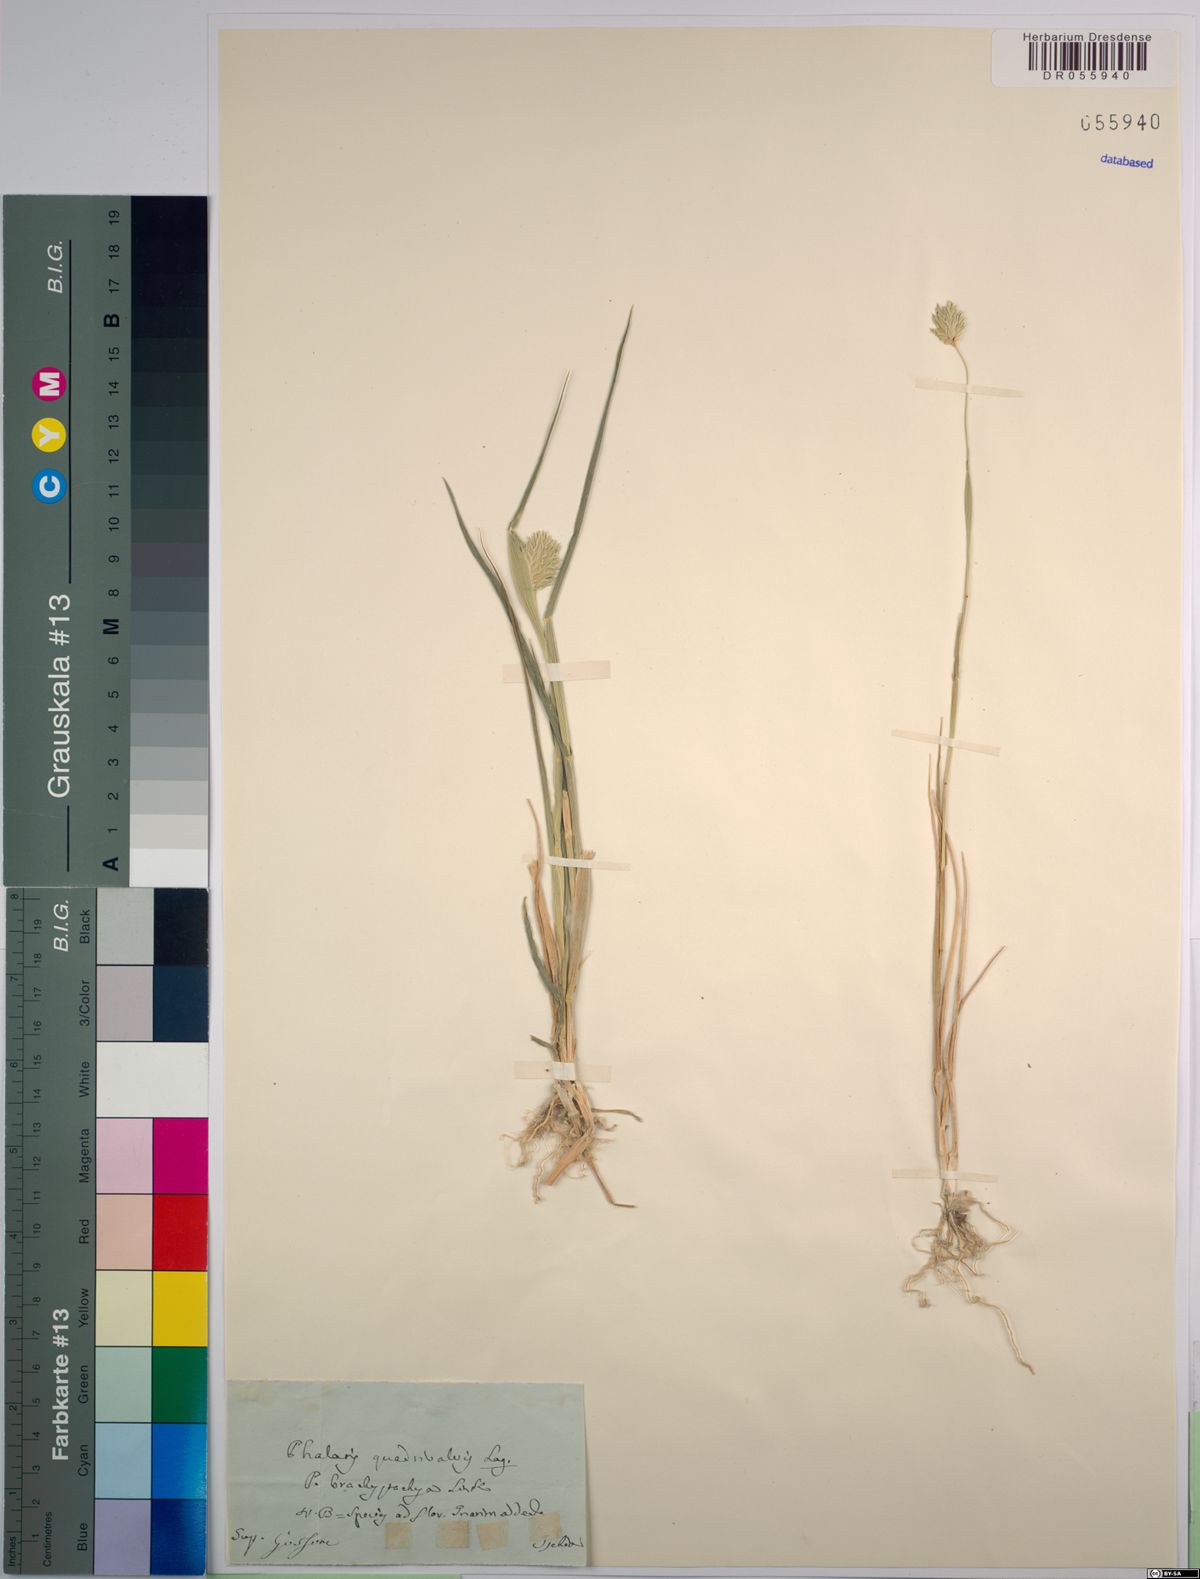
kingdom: Plantae
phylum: Tracheophyta
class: Liliopsida
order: Poales
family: Poaceae
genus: Phalaris
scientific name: Phalaris brachystachys
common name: Confused canary-grass
